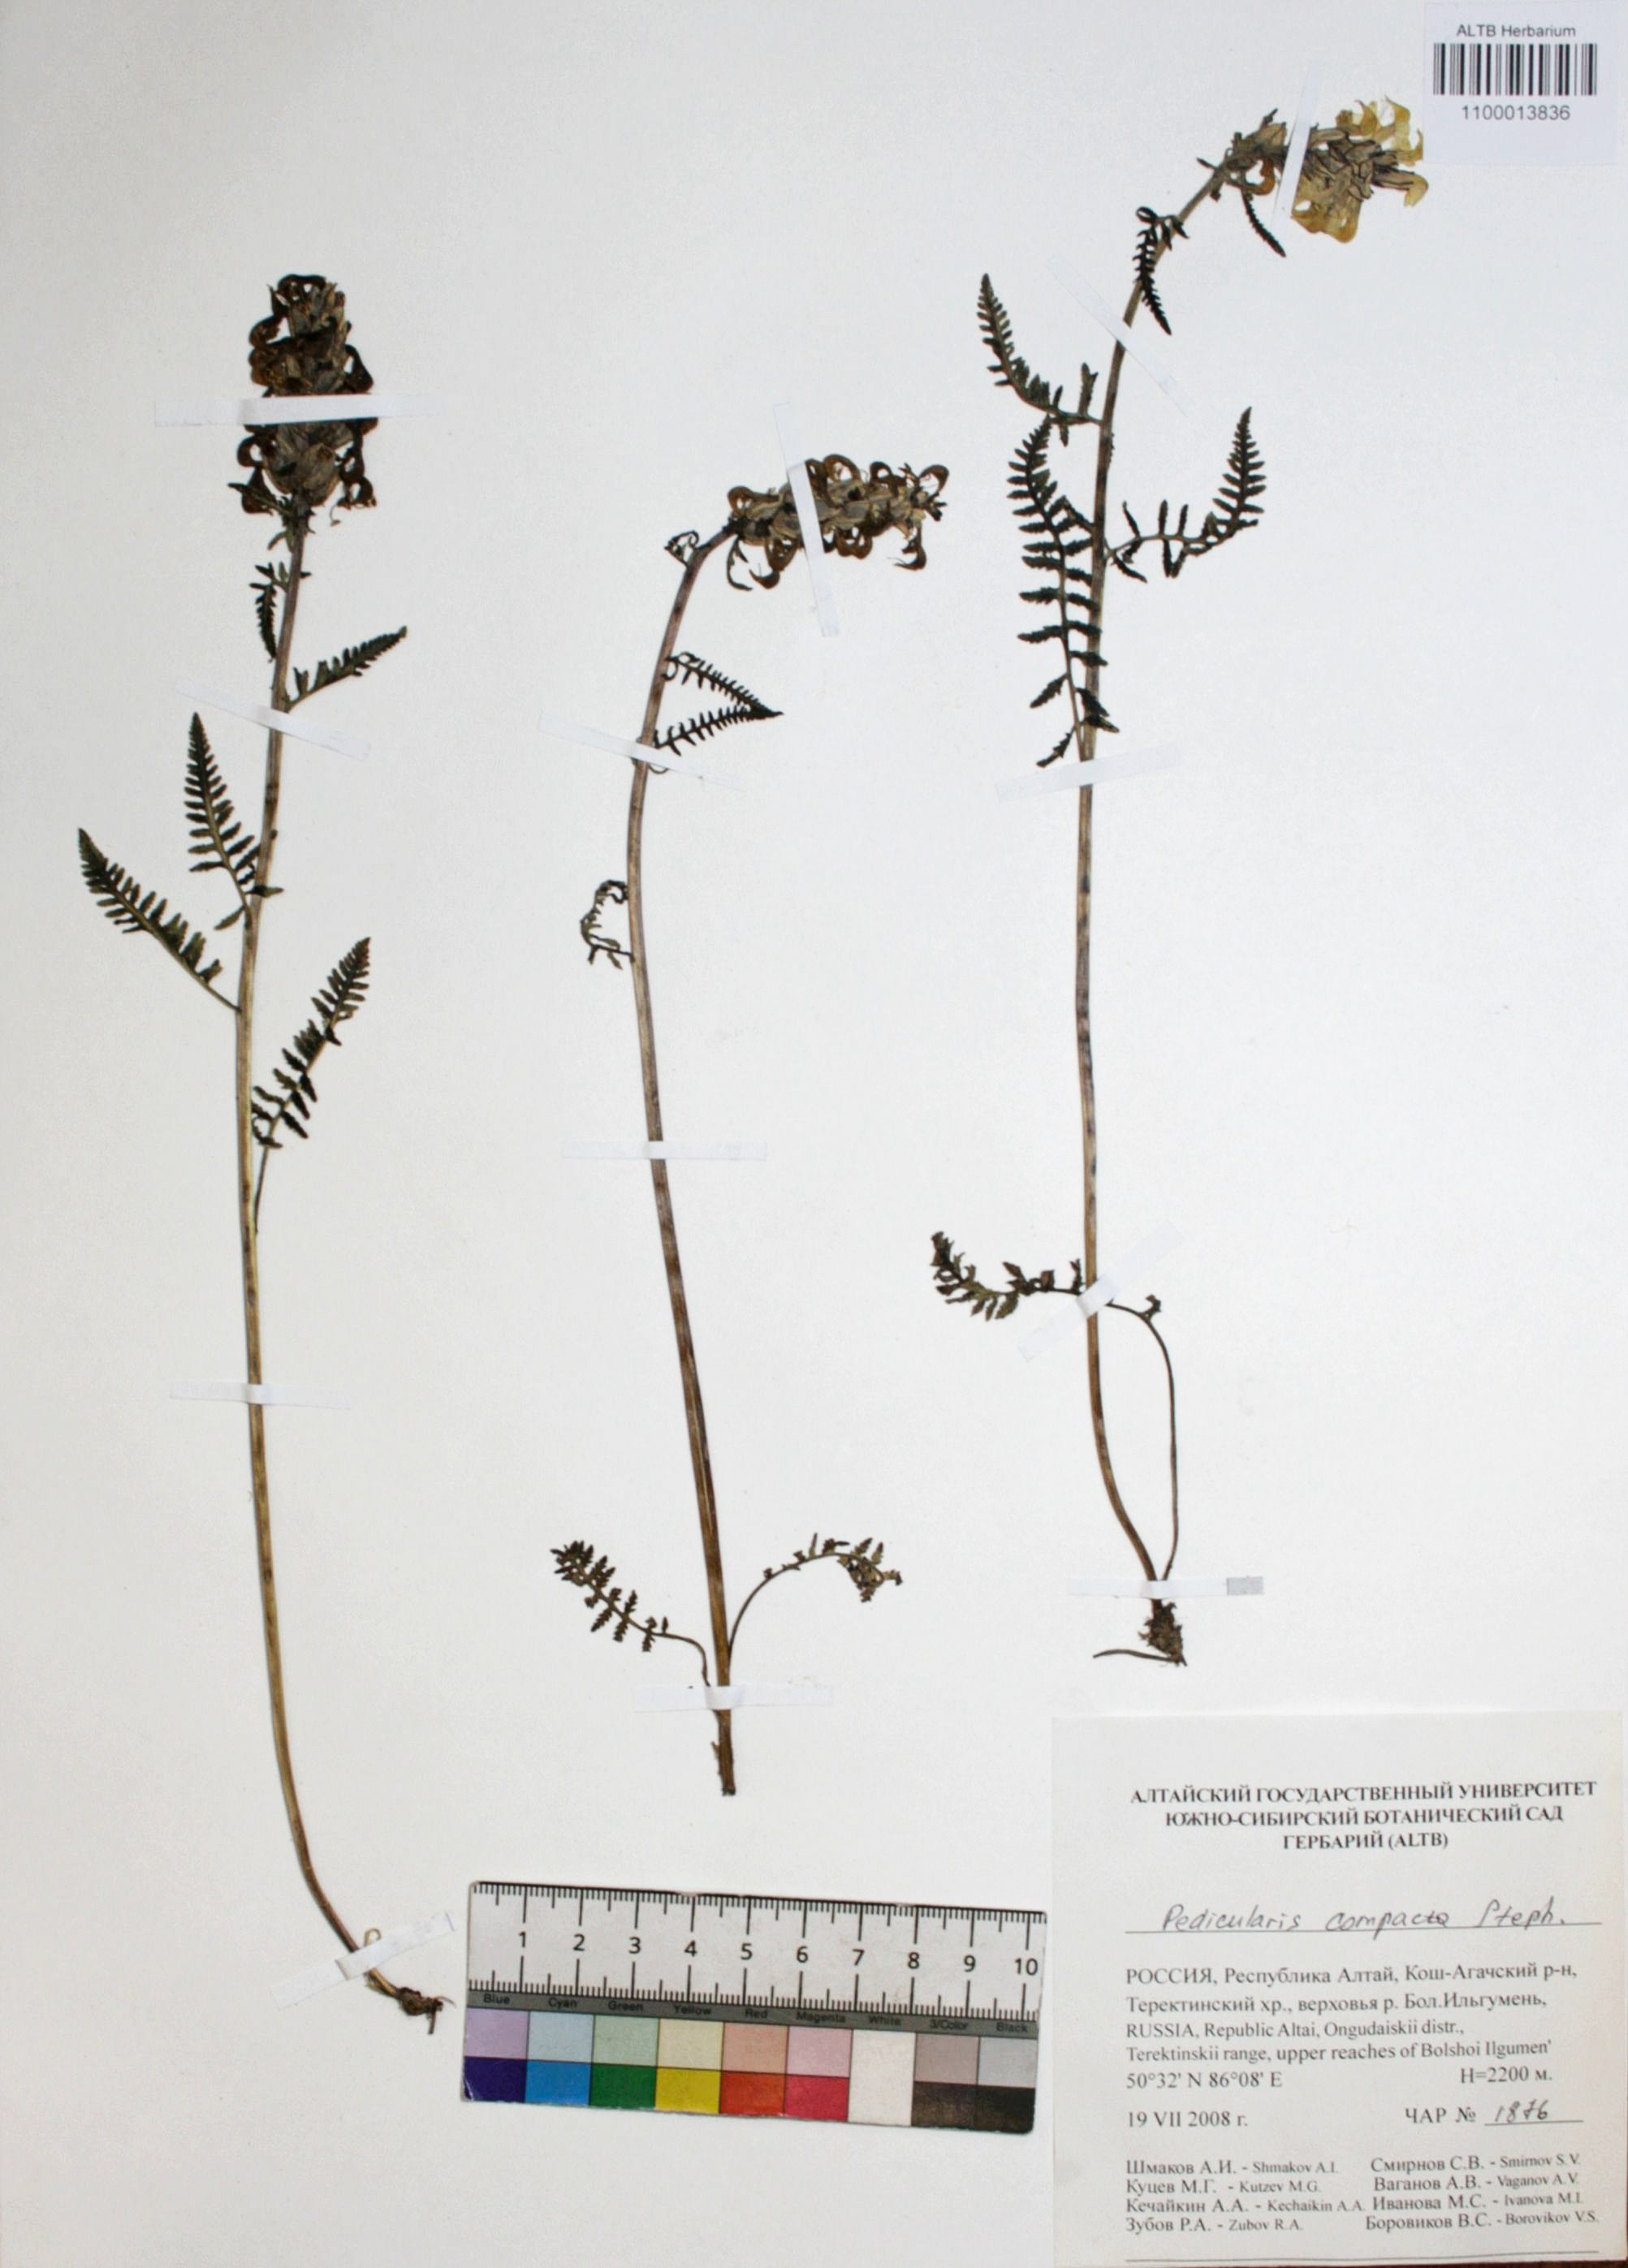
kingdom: Plantae
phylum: Tracheophyta
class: Magnoliopsida
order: Lamiales
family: Orobanchaceae
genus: Pedicularis
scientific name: Pedicularis compacta
